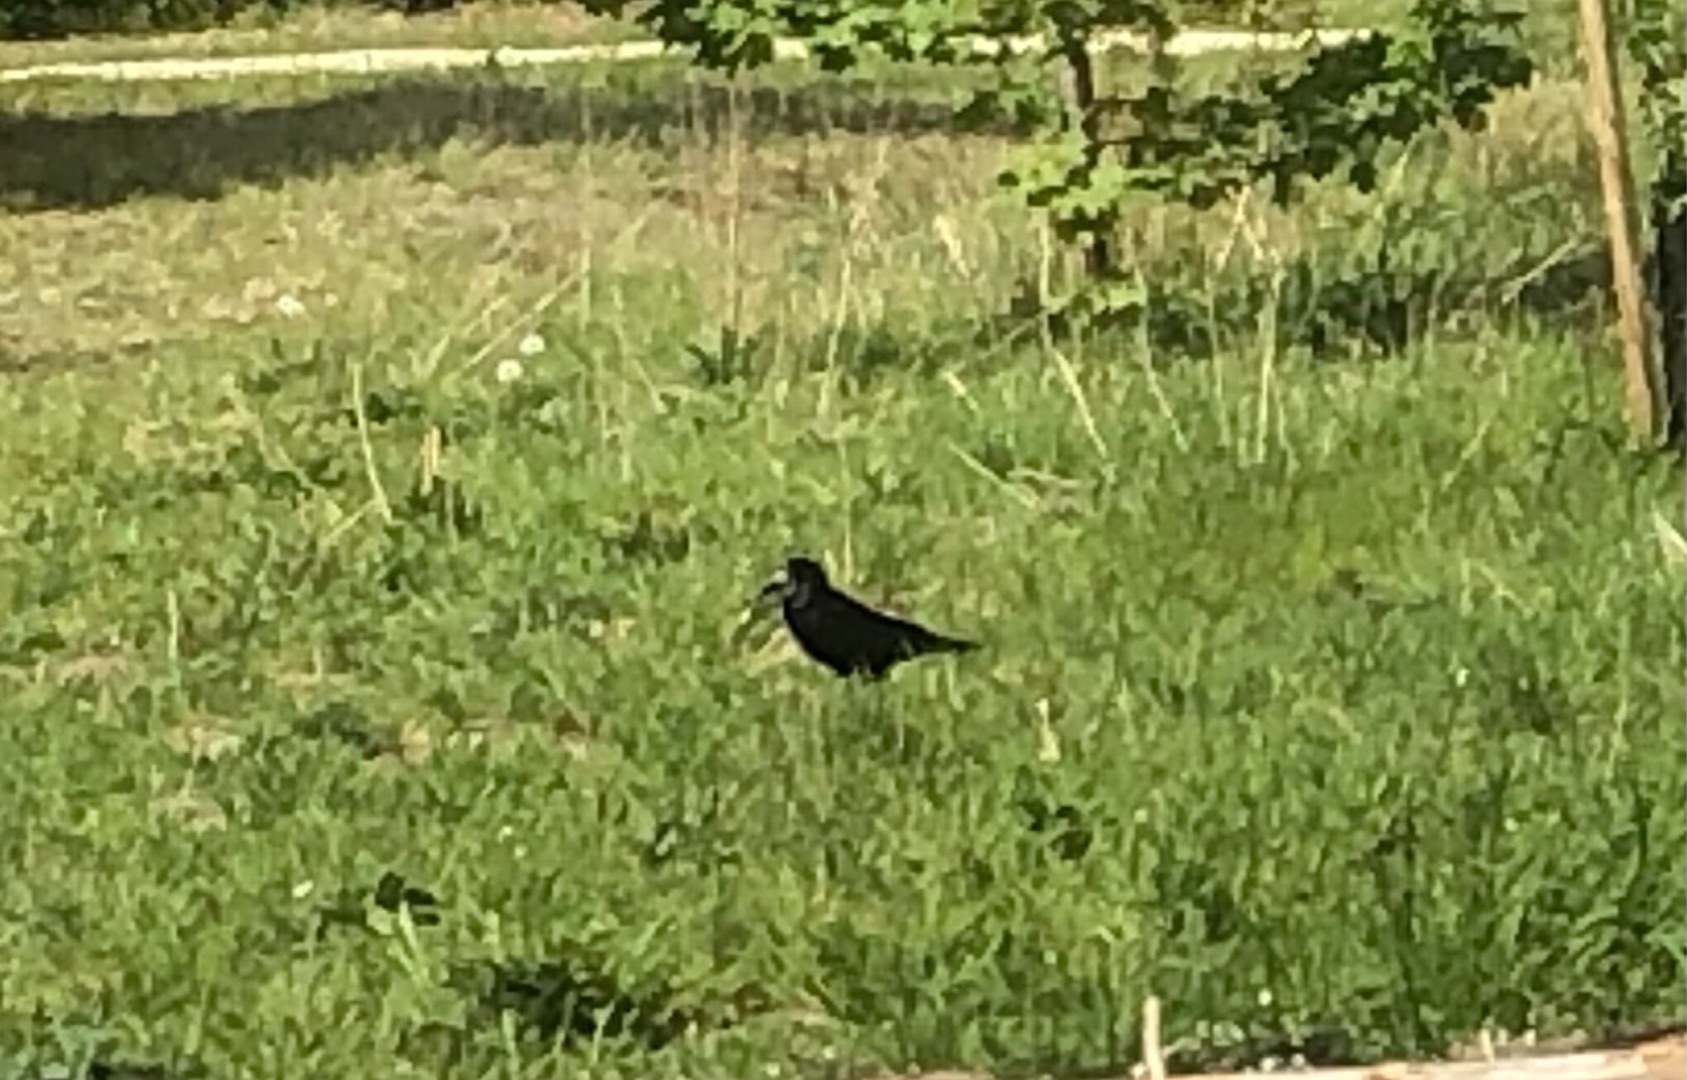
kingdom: Animalia
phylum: Chordata
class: Aves
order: Passeriformes
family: Corvidae
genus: Corvus
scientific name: Corvus frugilegus
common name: Råge
